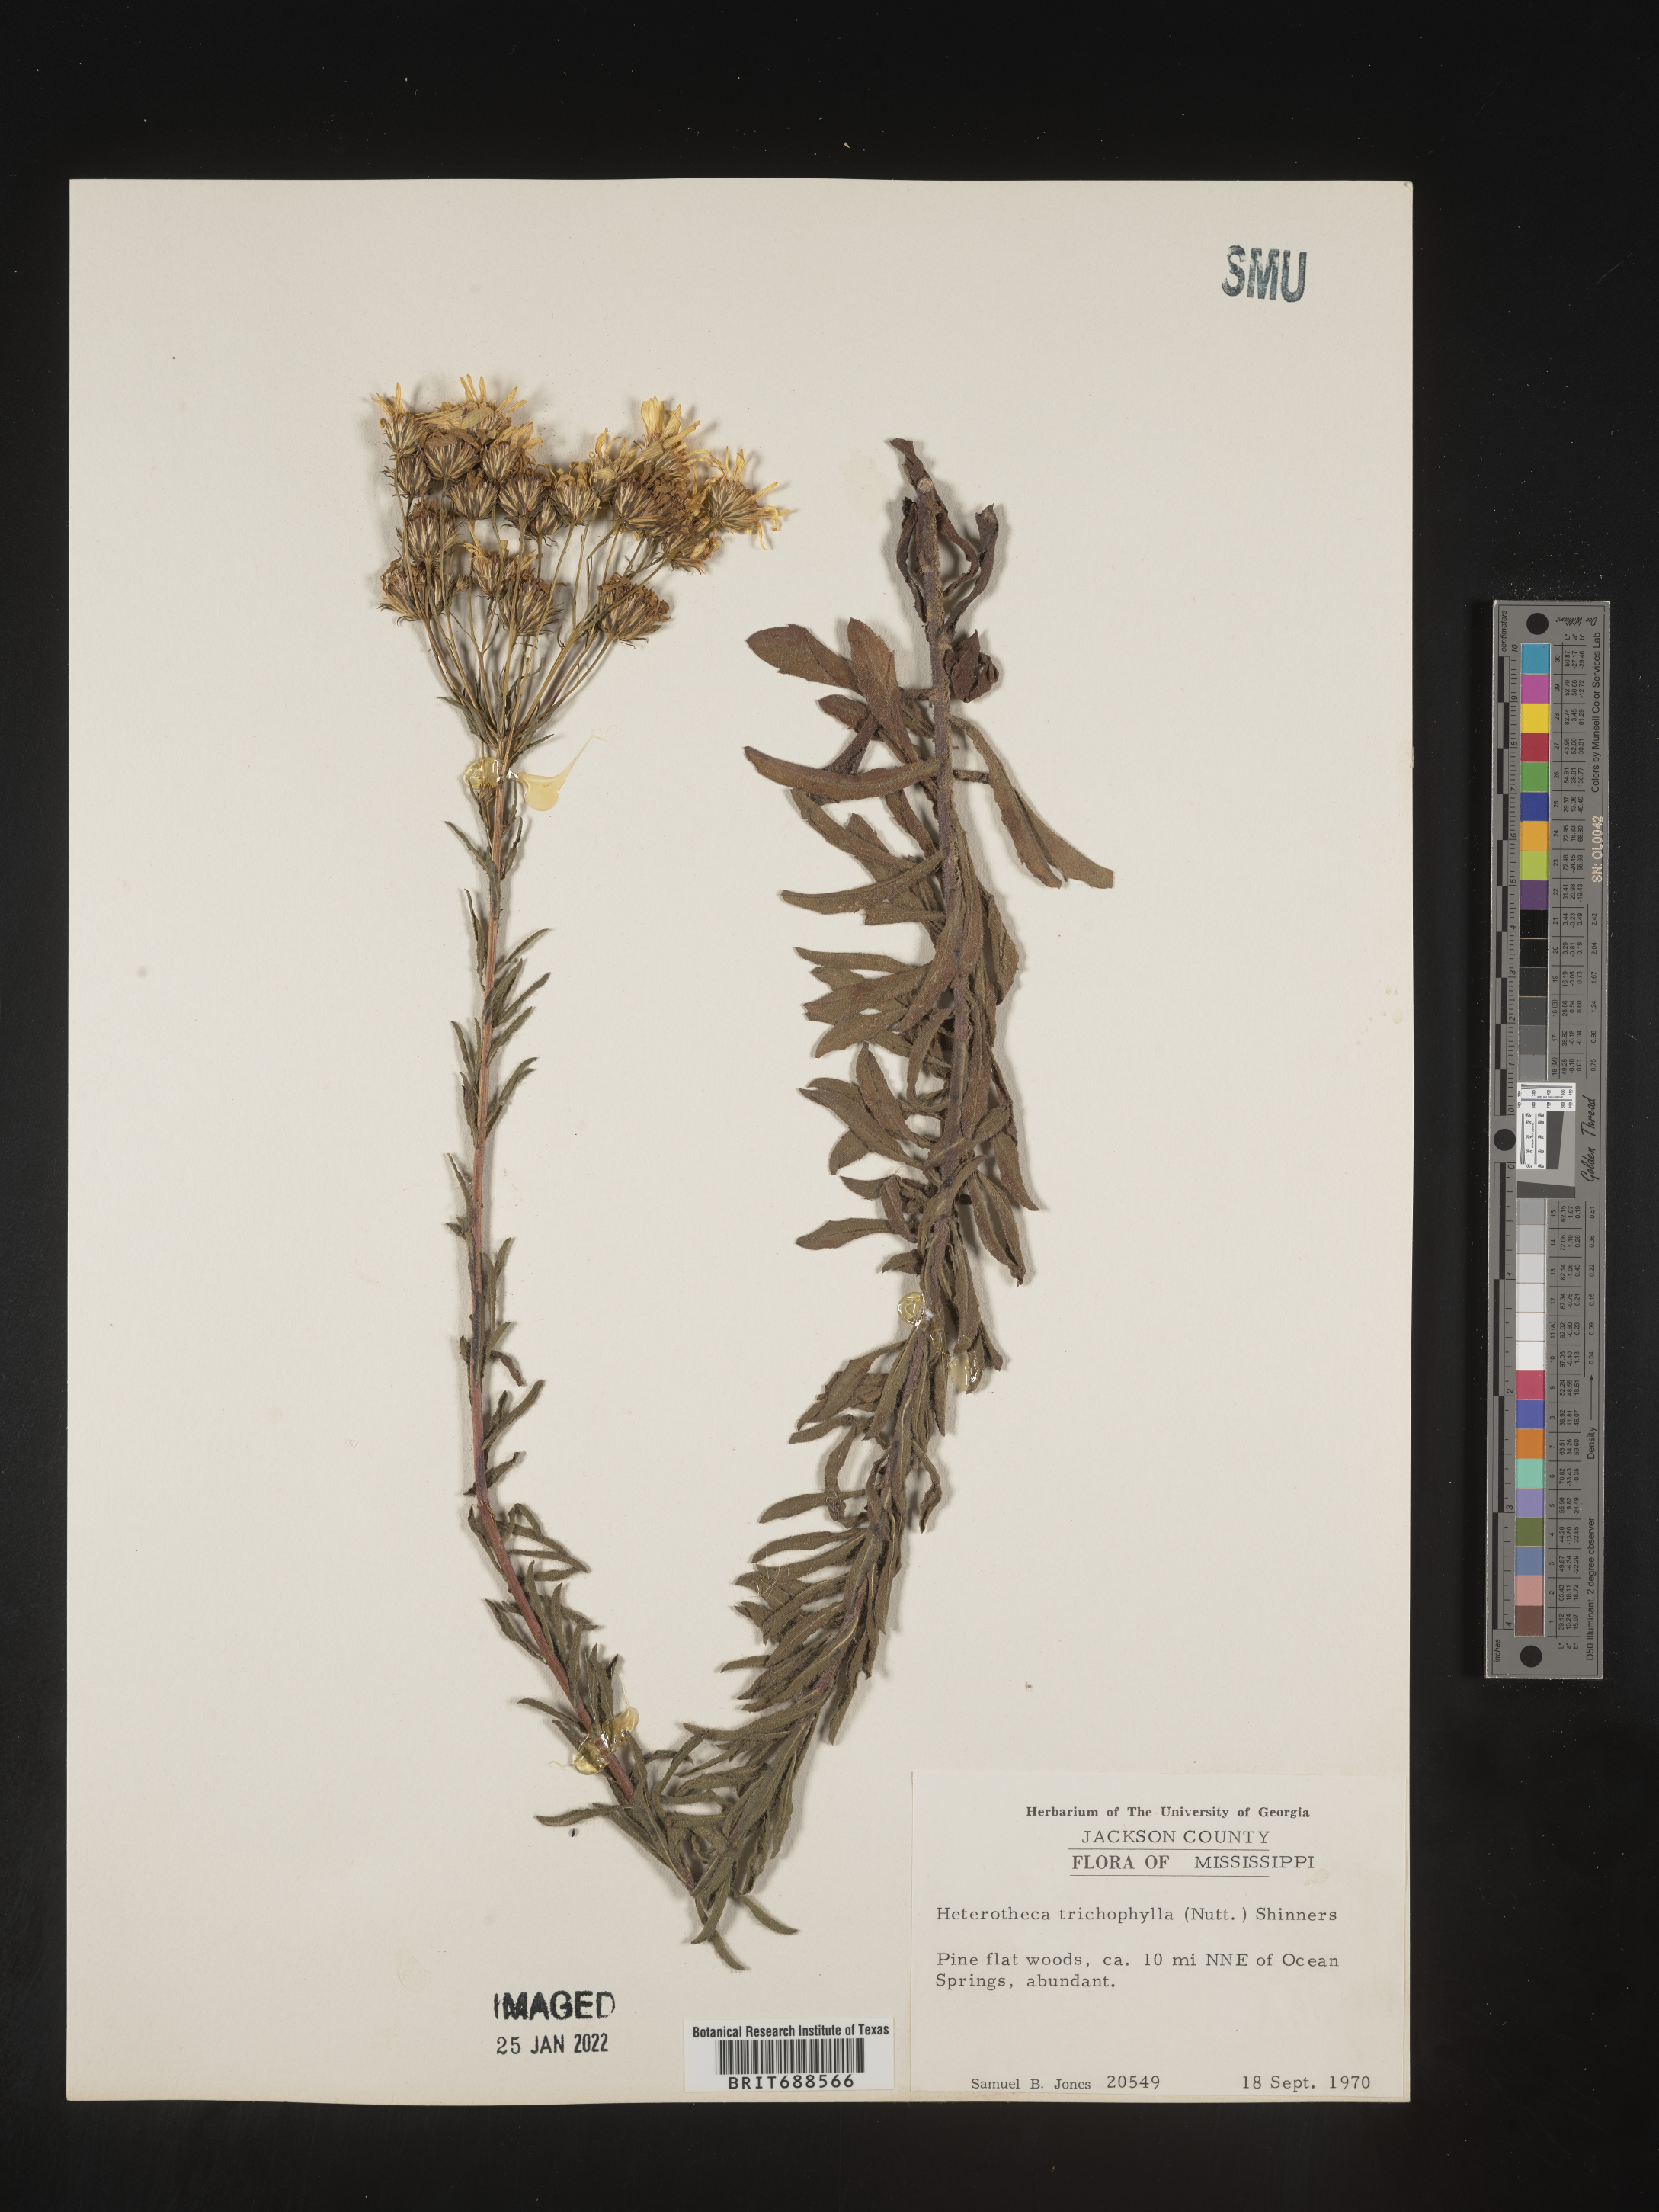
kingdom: Plantae
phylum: Tracheophyta
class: Magnoliopsida
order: Asterales
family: Asteraceae
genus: Chrysopsis
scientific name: Chrysopsis gossypina
